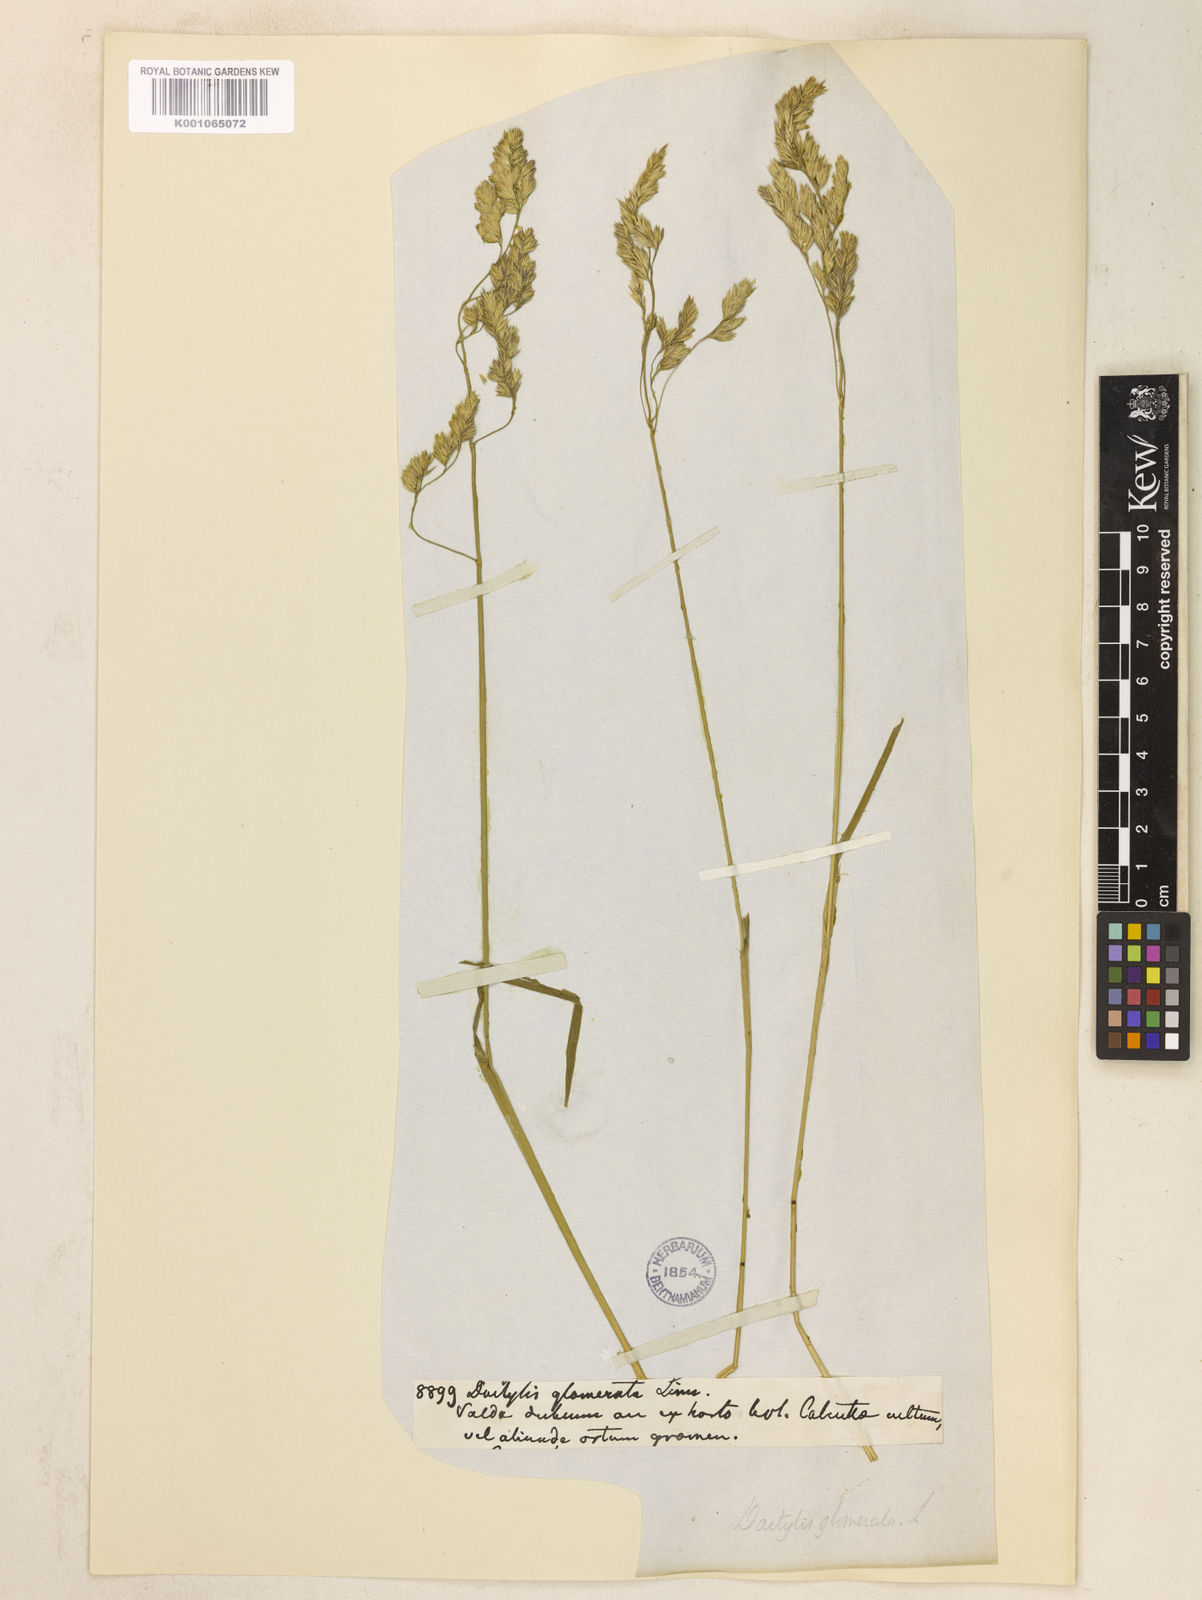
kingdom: Plantae
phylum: Tracheophyta
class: Liliopsida
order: Poales
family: Poaceae
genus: Dactylis
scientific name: Dactylis glomerata
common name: Orchardgrass
